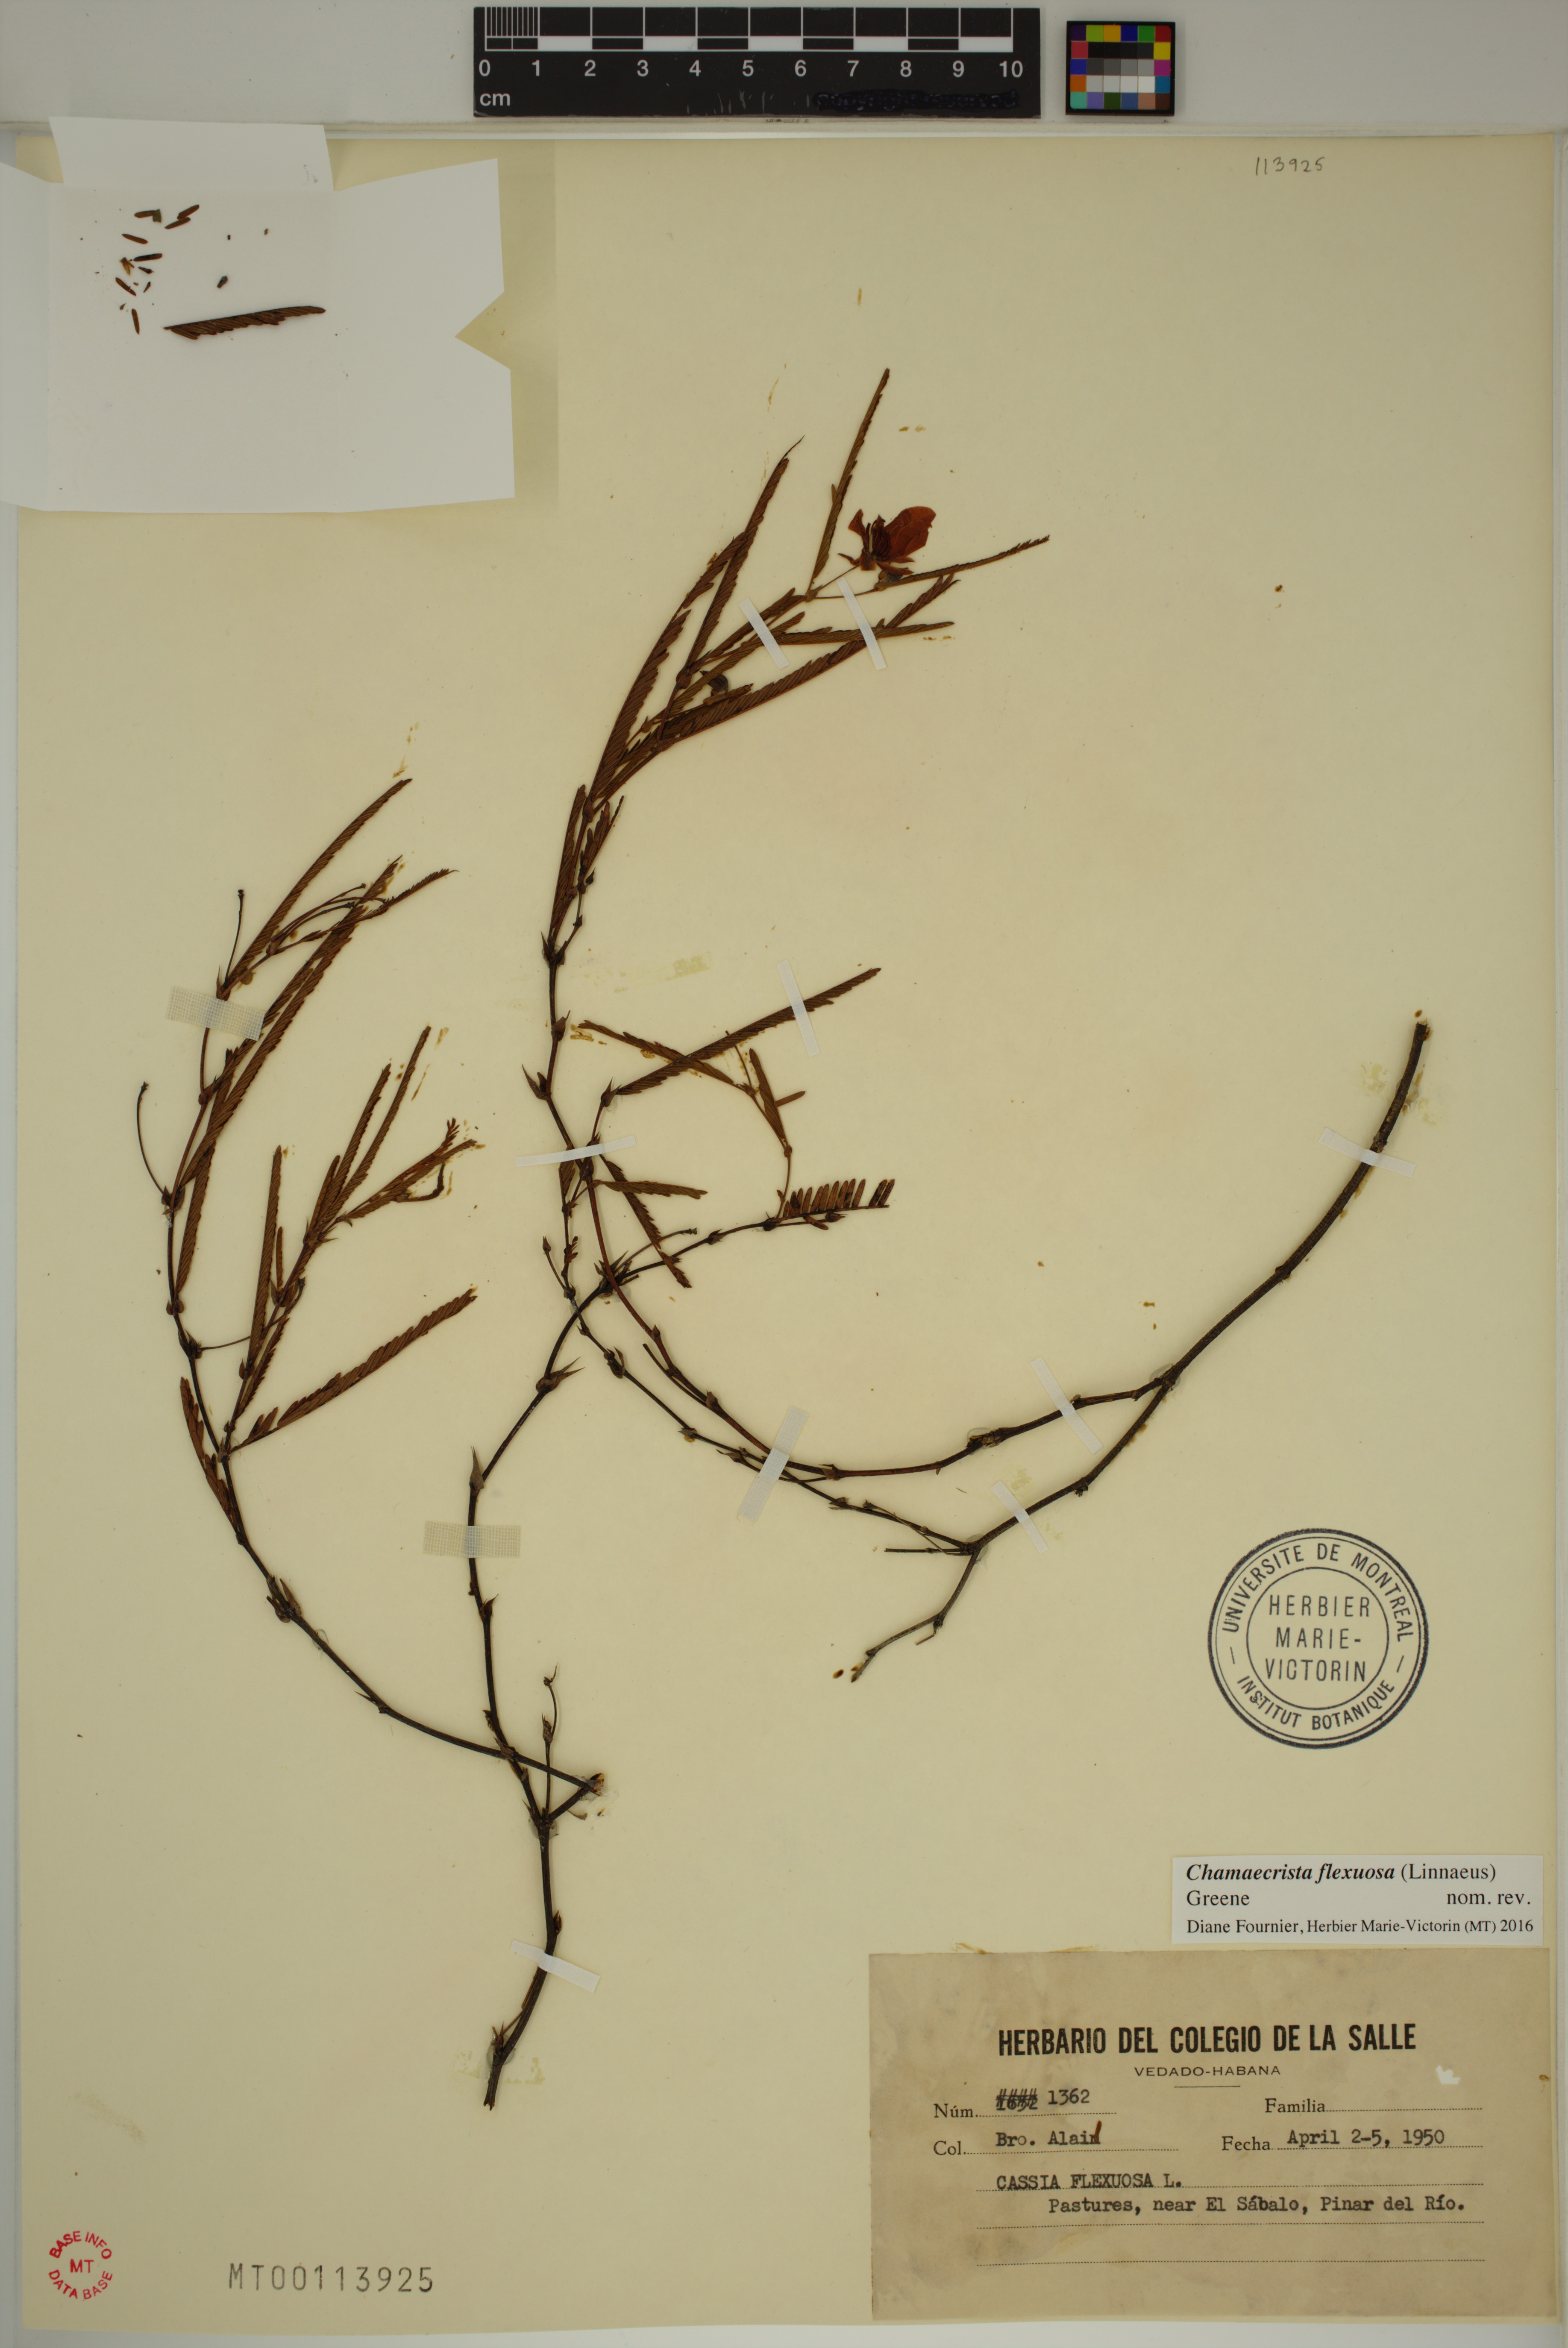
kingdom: Plantae
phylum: Tracheophyta
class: Magnoliopsida
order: Fabales
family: Fabaceae
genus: Chamaecrista
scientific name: Chamaecrista flexuosa
